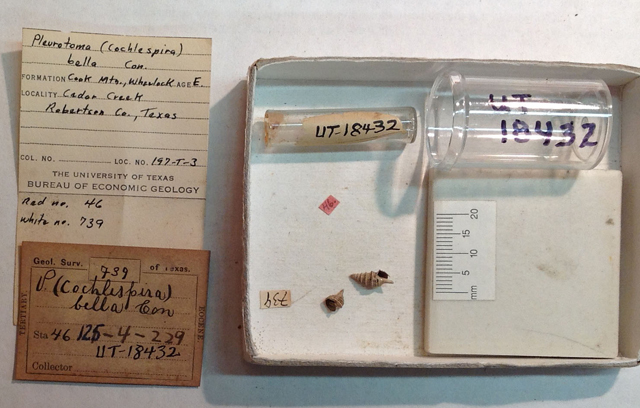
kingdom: Animalia
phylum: Mollusca
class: Gastropoda
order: Neogastropoda
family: Horaiclavidae
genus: Buchema
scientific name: Buchema bellula
